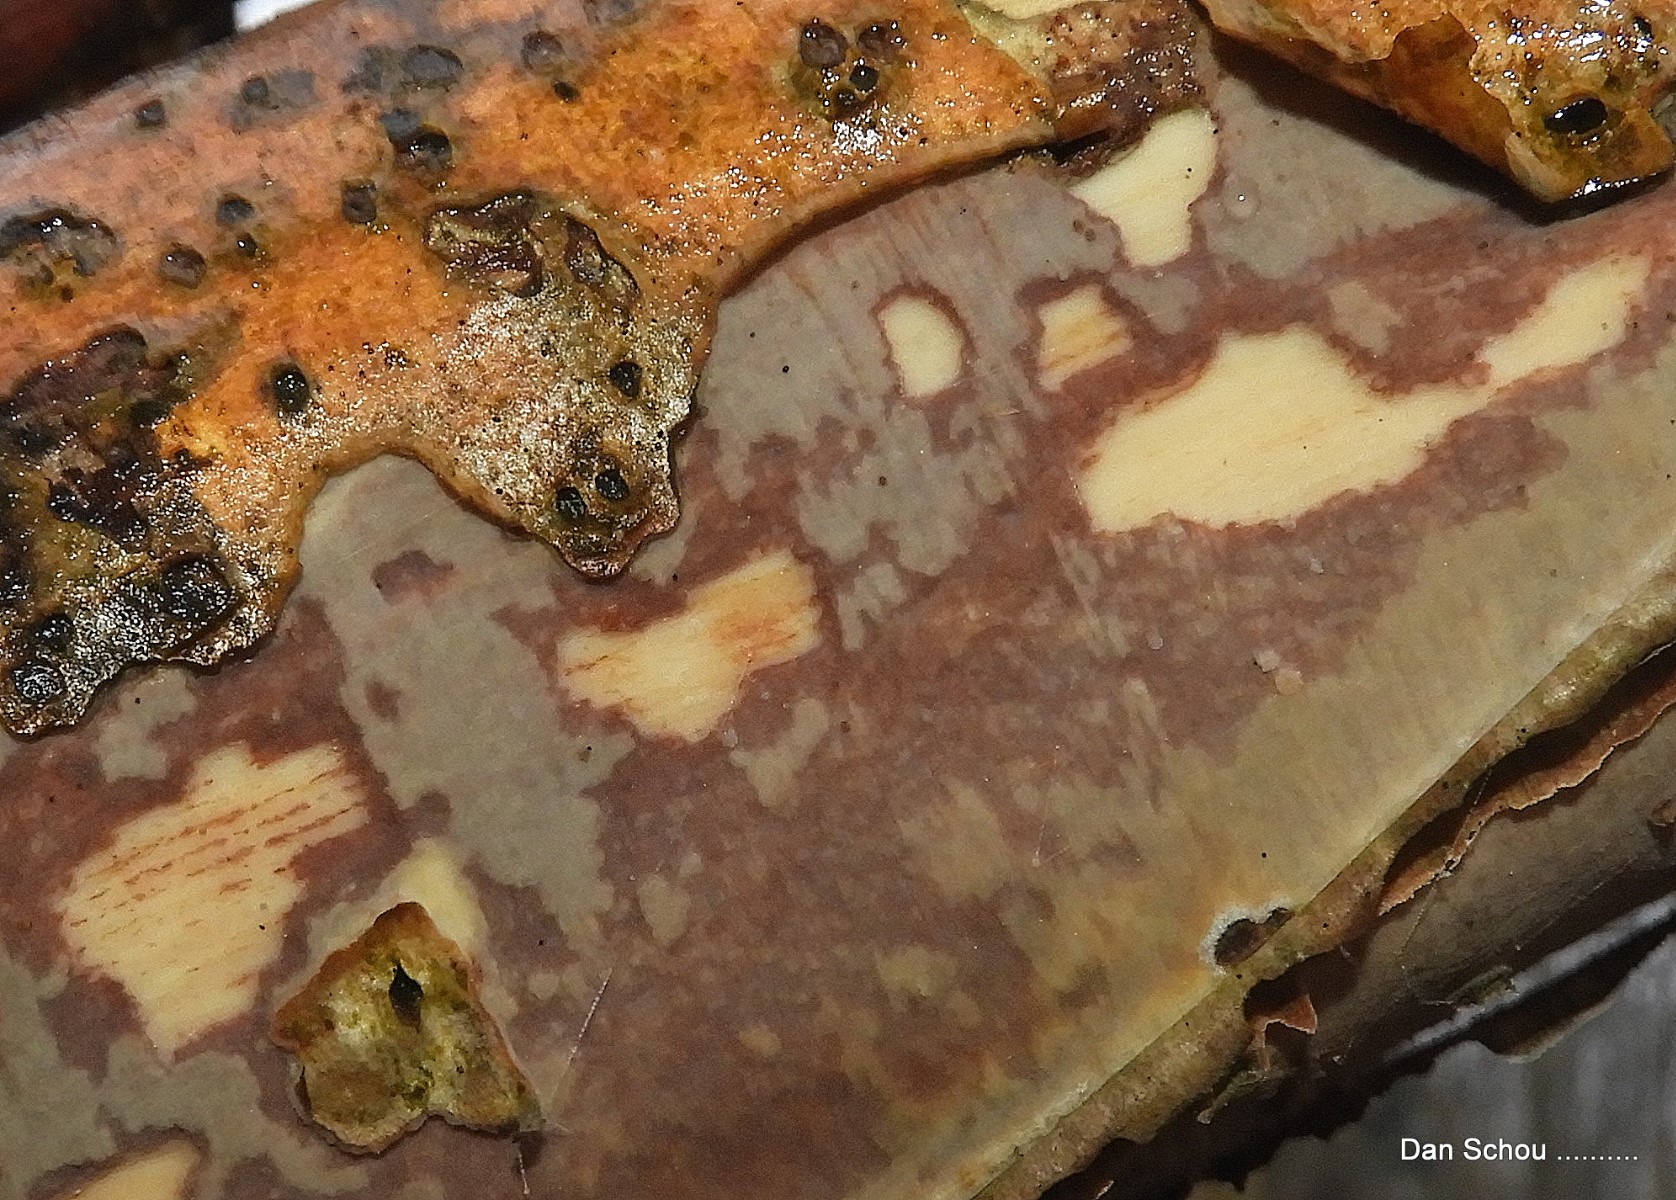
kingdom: Fungi
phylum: Basidiomycota
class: Agaricomycetes
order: Corticiales
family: Vuilleminiaceae
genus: Vuilleminia
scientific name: Vuilleminia coryli
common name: hassel-barksprænger
